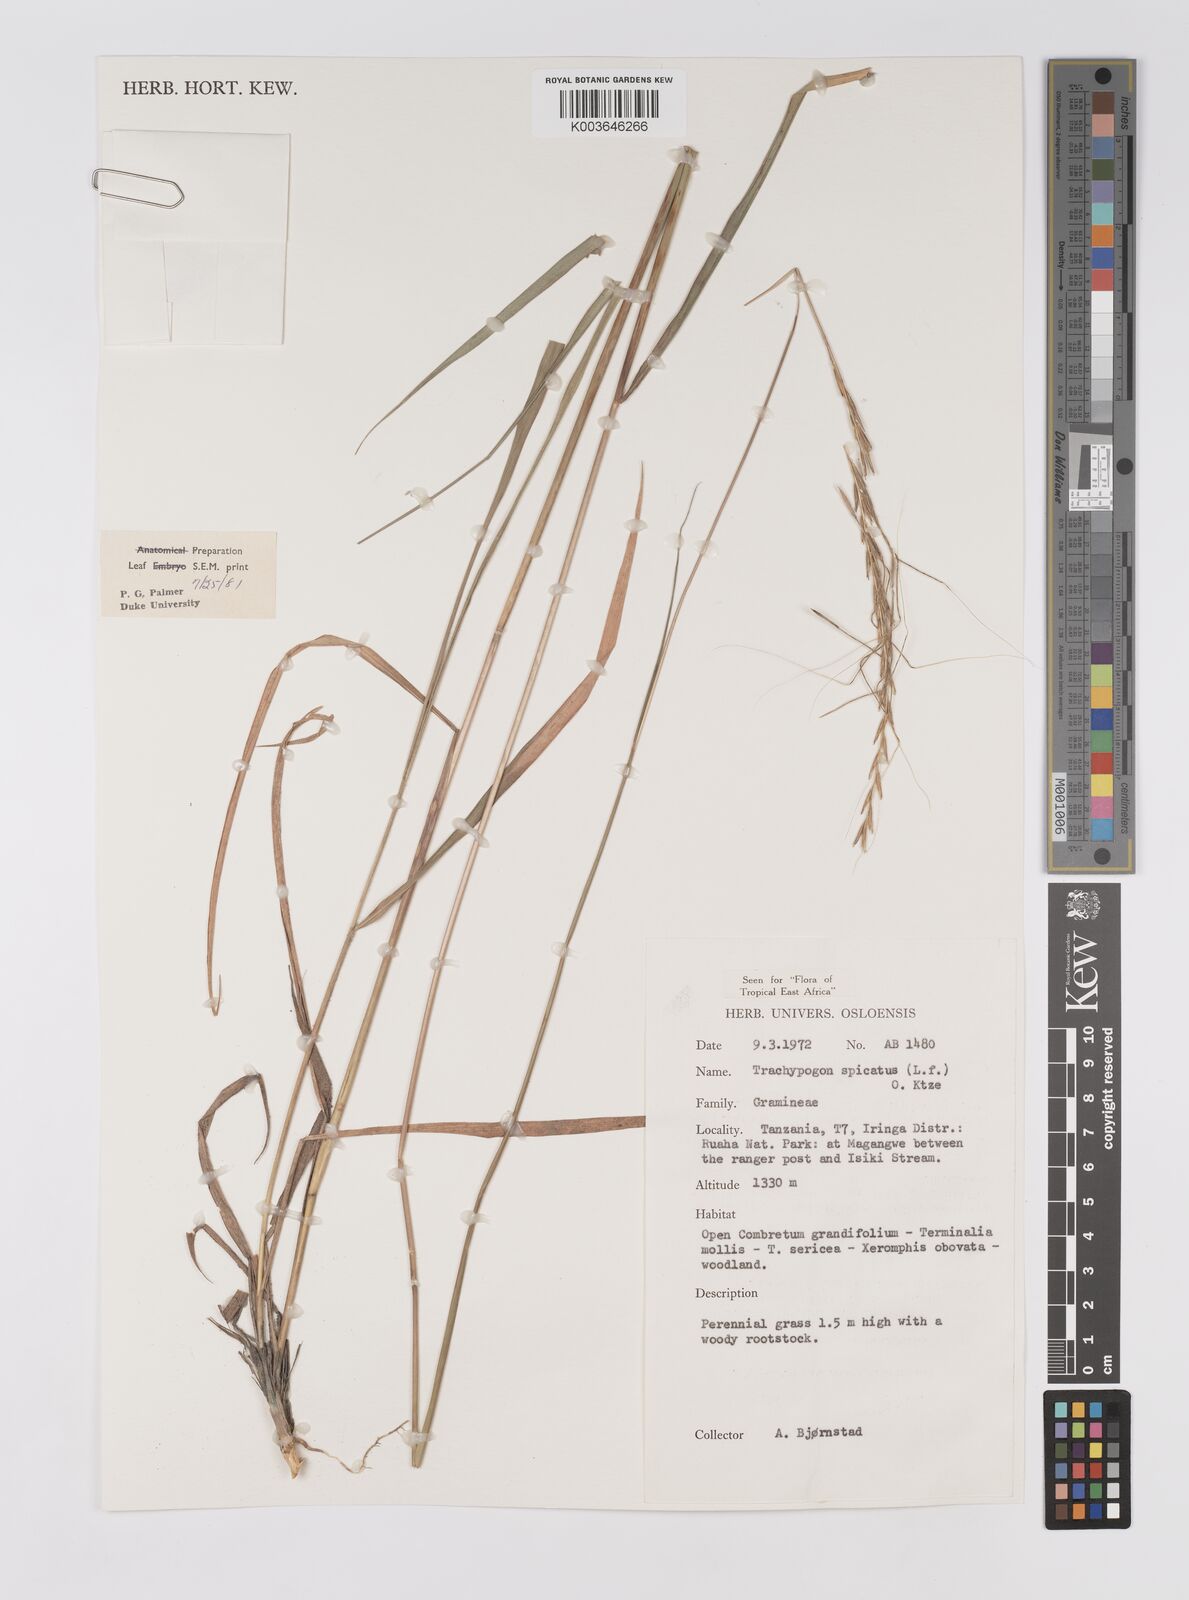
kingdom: Plantae
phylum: Tracheophyta
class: Liliopsida
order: Poales
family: Poaceae
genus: Trachypogon
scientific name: Trachypogon spicatus
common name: Crinkle-awn
